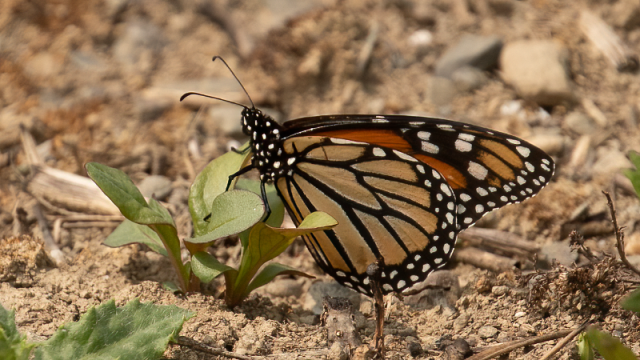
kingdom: Animalia
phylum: Arthropoda
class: Insecta
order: Lepidoptera
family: Nymphalidae
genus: Danaus
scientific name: Danaus plexippus
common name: Monarch
